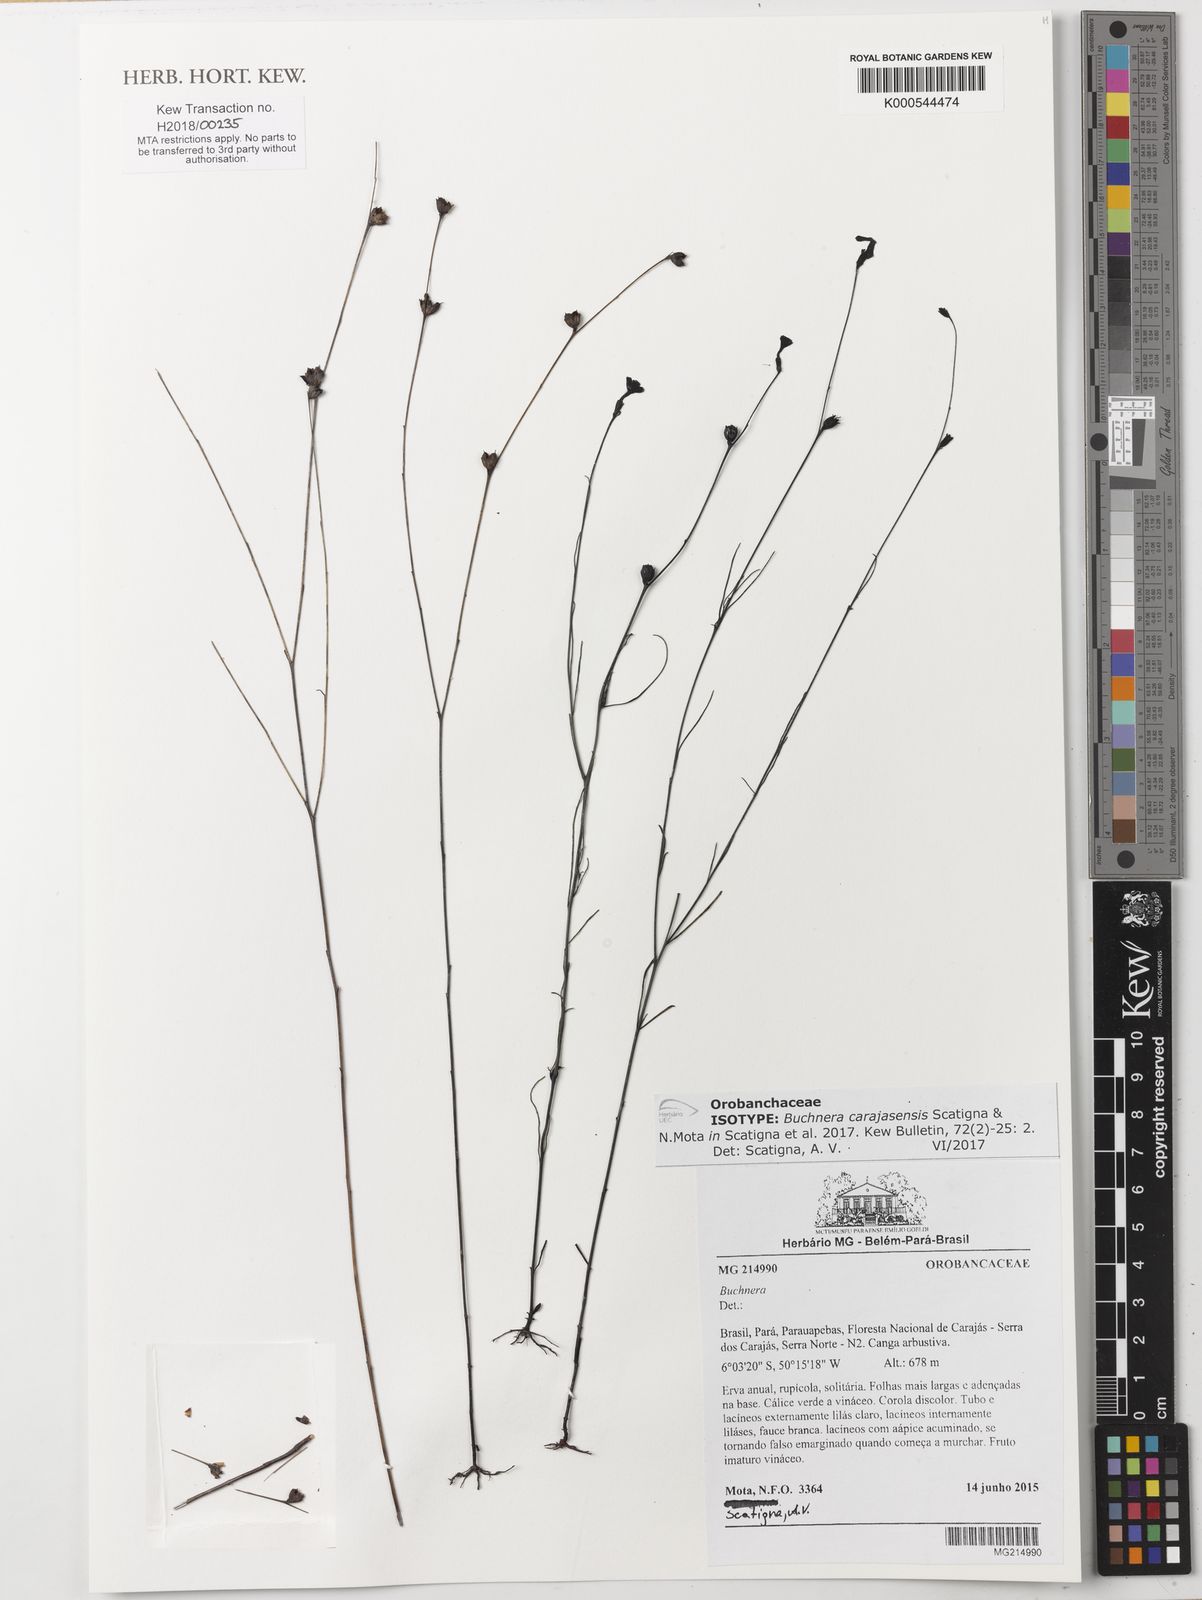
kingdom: Plantae
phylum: Tracheophyta
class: Magnoliopsida
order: Lamiales
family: Orobanchaceae
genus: Buchnera
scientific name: Buchnera carajasensis
